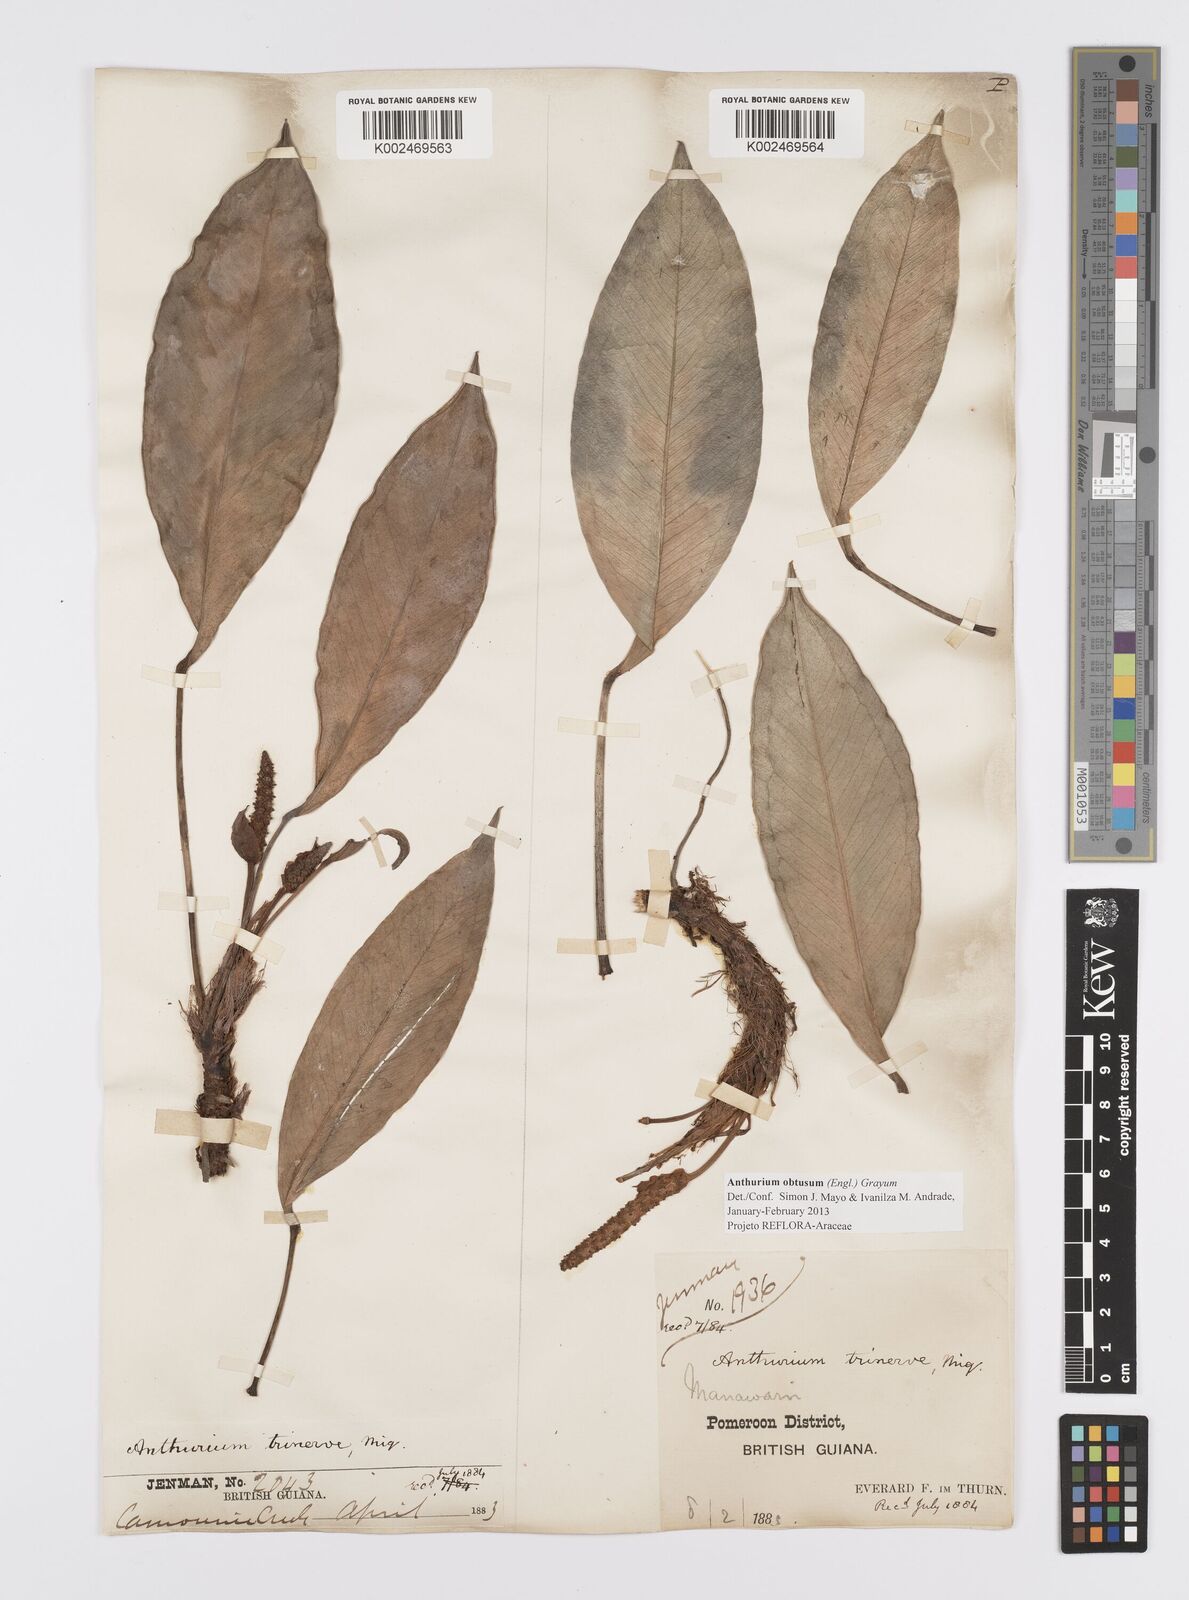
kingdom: Plantae
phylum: Tracheophyta
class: Liliopsida
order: Alismatales
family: Araceae
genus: Anthurium
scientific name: Anthurium obtusum
